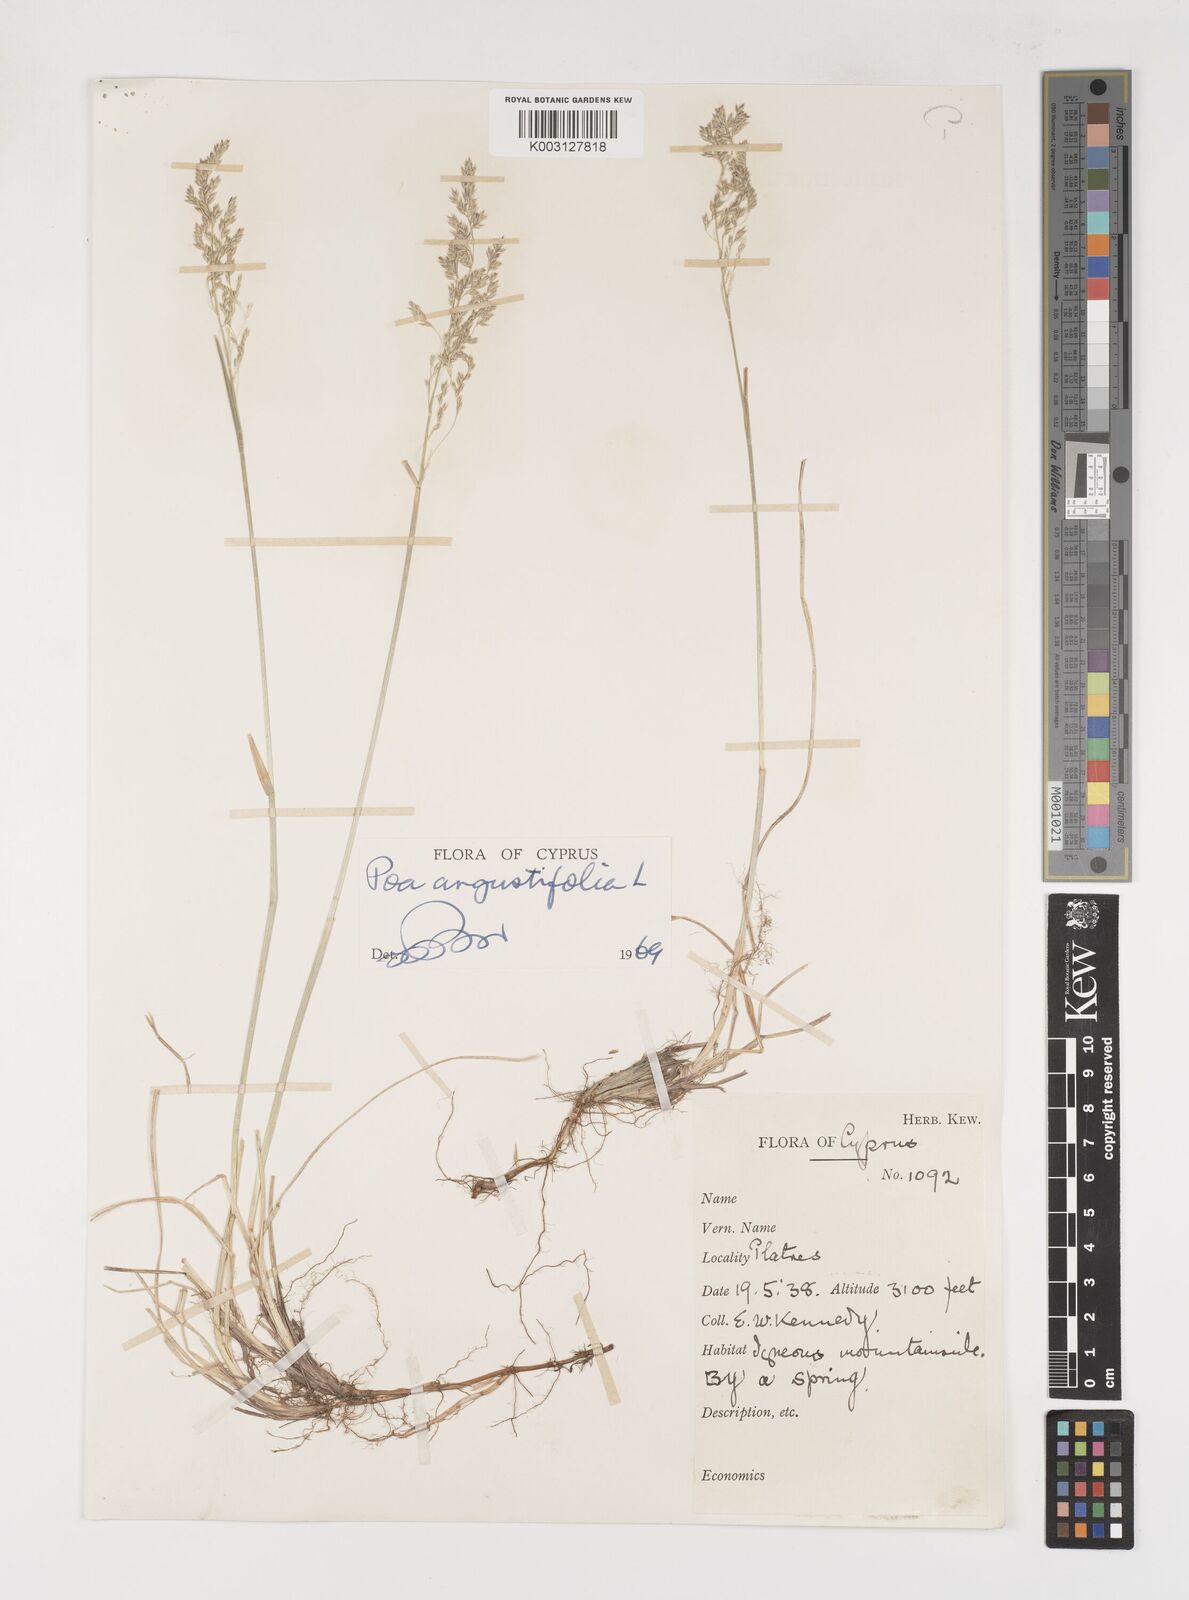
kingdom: Plantae
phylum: Tracheophyta
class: Liliopsida
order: Poales
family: Poaceae
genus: Poa
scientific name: Poa angustifolia
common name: Narrow-leaved meadow-grass
